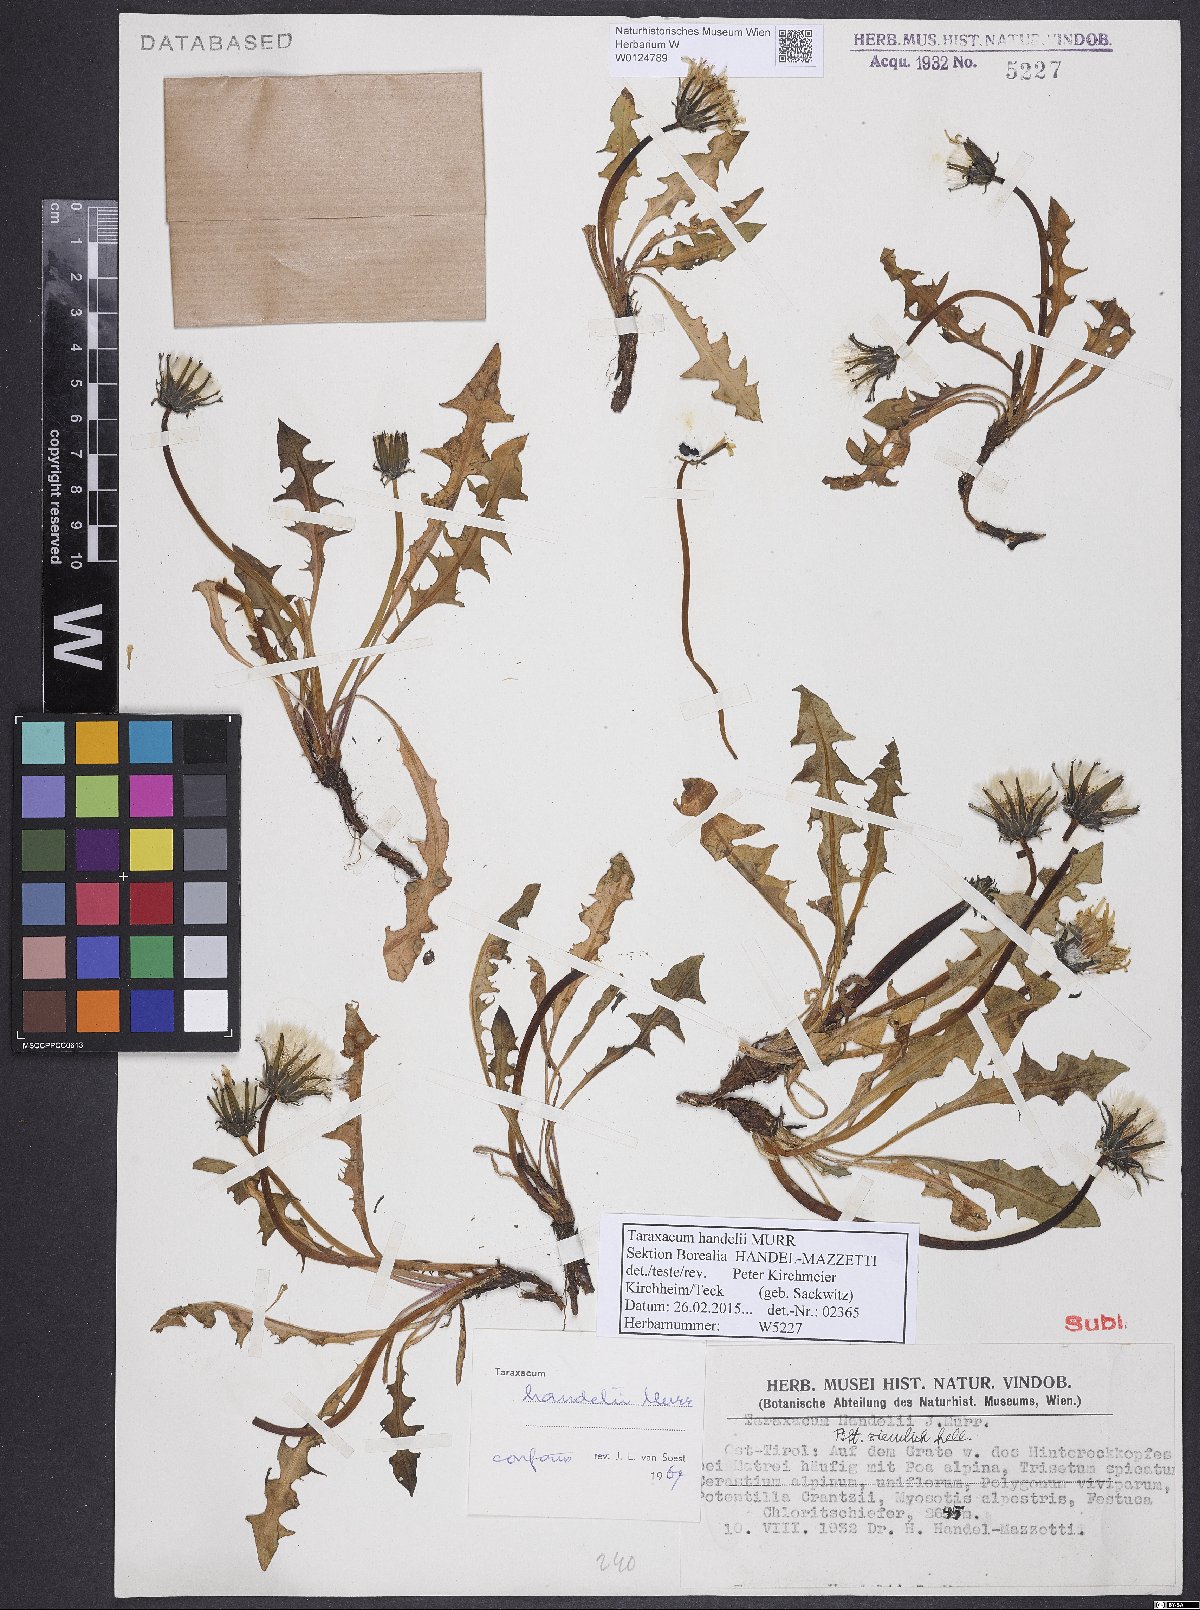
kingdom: Plantae
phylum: Tracheophyta
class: Magnoliopsida
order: Asterales
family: Asteraceae
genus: Taraxacum
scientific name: Taraxacum handelii
